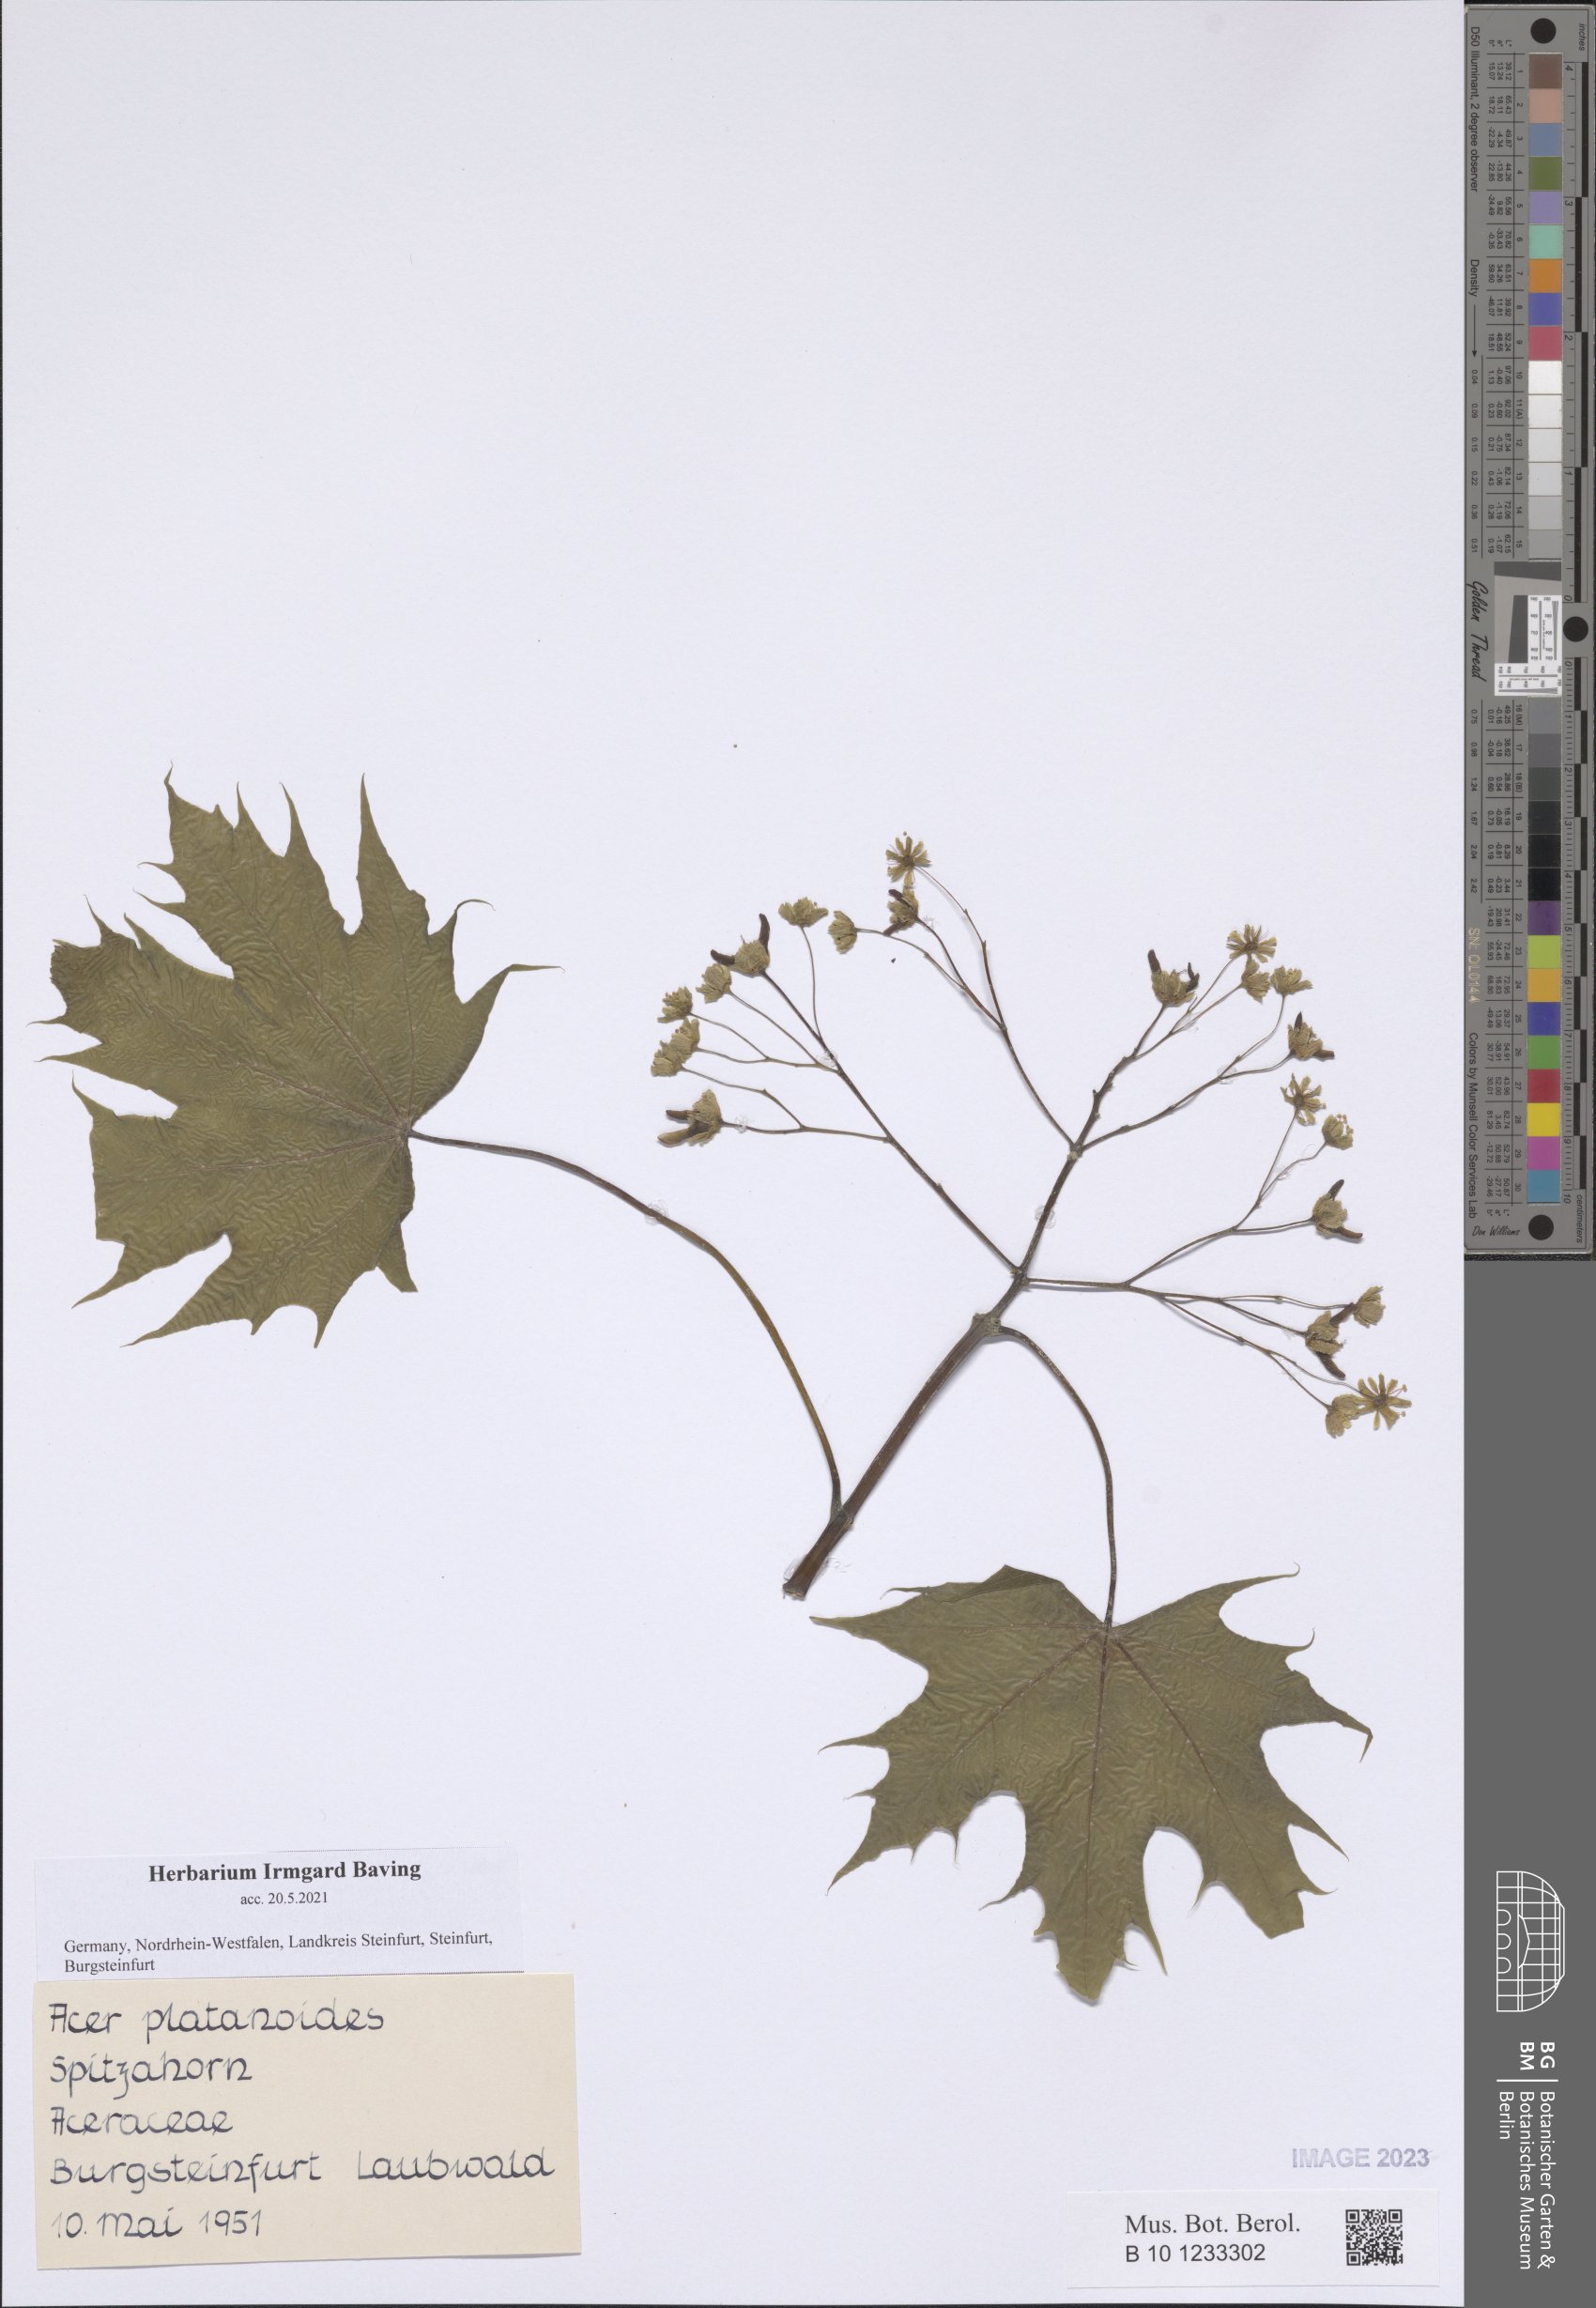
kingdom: Plantae
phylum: Tracheophyta
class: Magnoliopsida
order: Sapindales
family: Sapindaceae
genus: Acer
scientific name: Acer platanoides
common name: Norway maple
